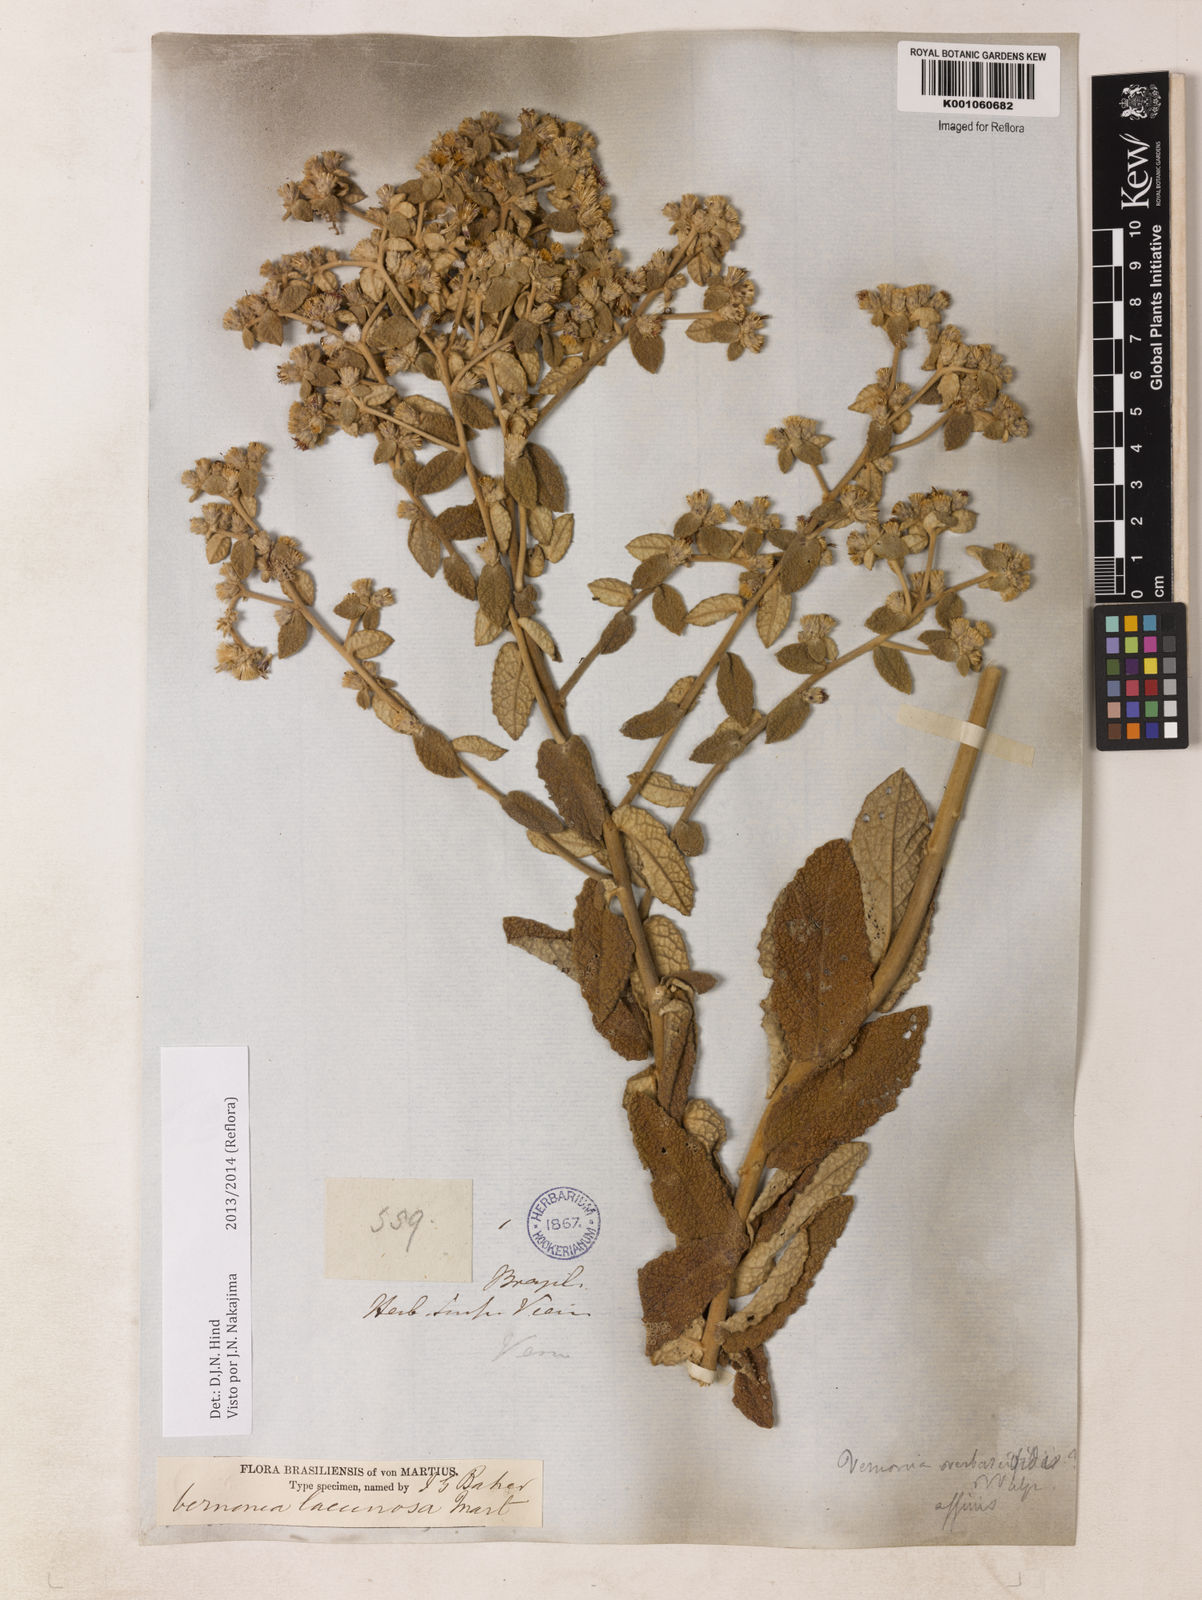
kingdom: Plantae
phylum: Tracheophyta
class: Magnoliopsida
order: Asterales
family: Asteraceae
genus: Lessingianthus
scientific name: Lessingianthus lacunosus
